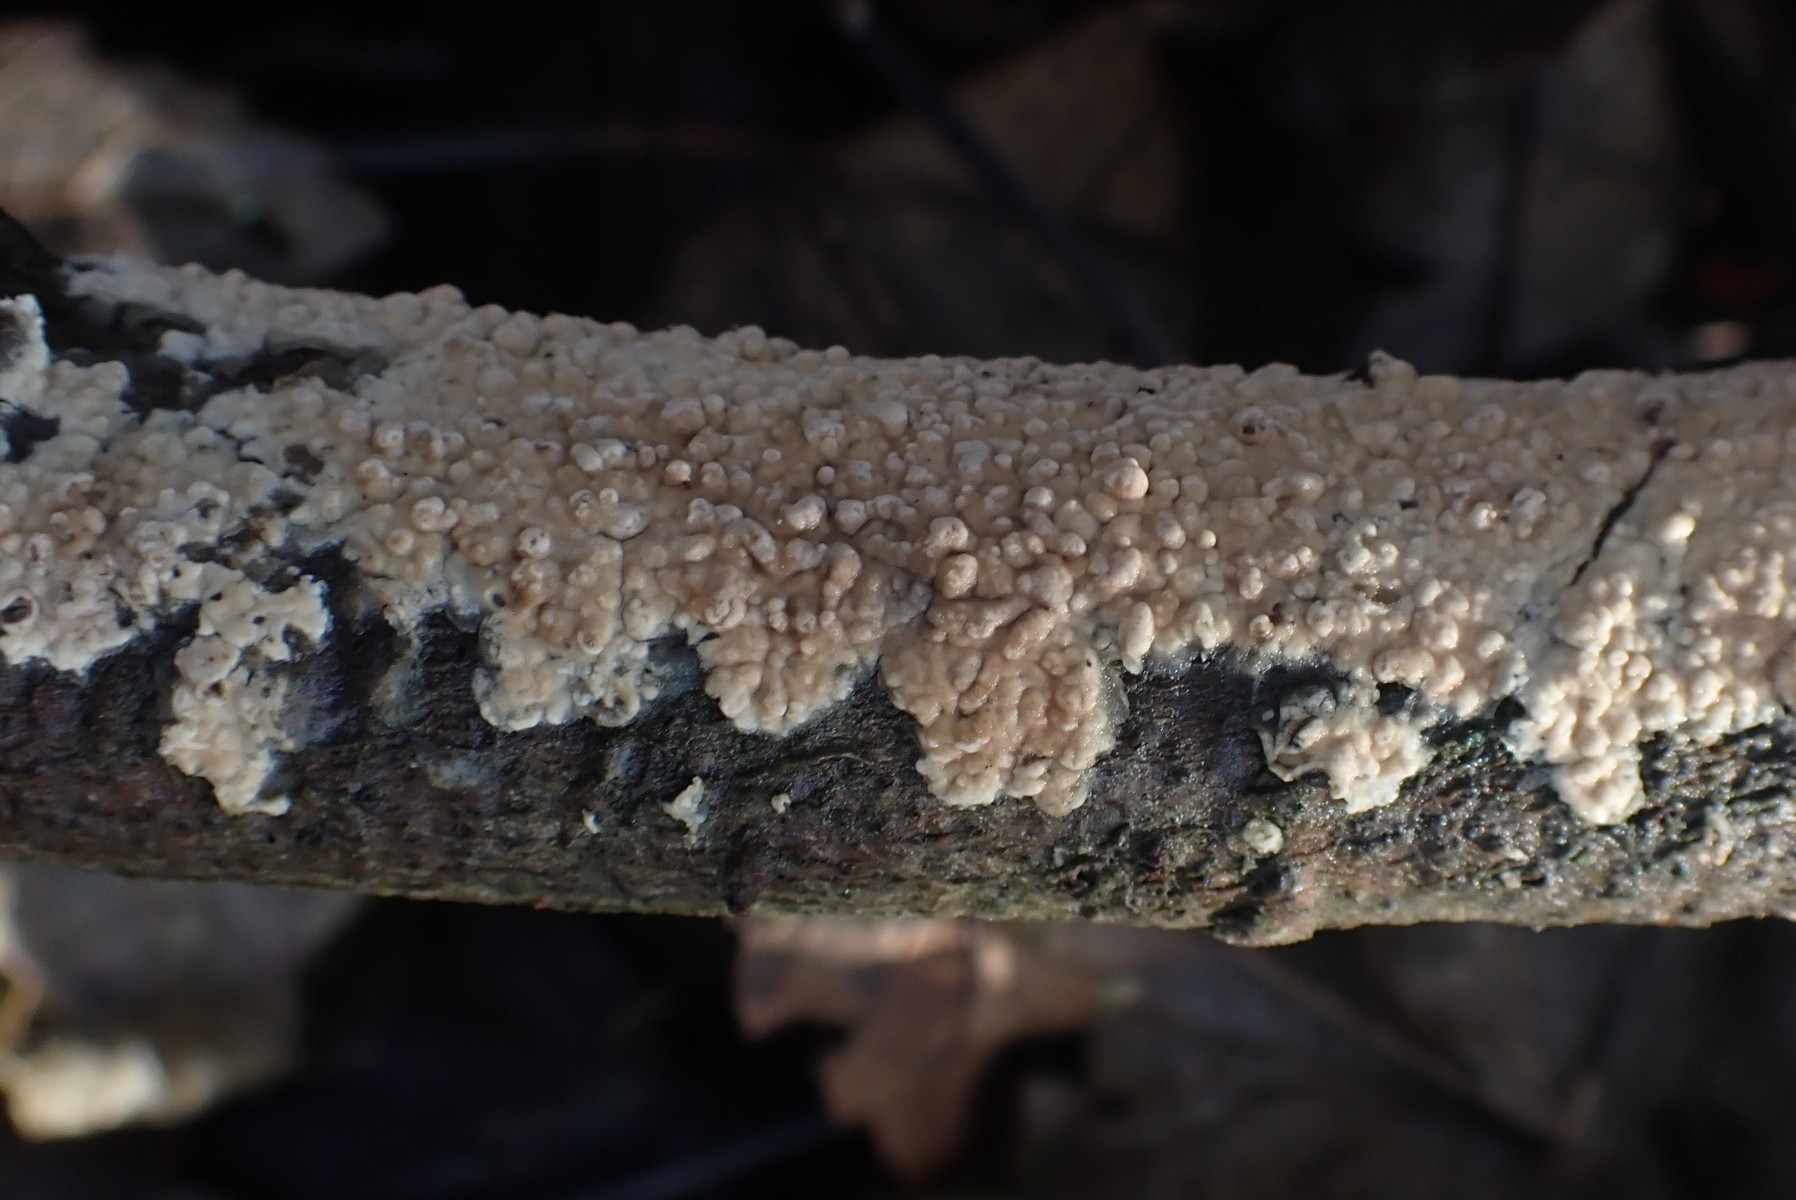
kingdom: Fungi
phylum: Basidiomycota
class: Agaricomycetes
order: Agaricales
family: Physalacriaceae
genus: Cylindrobasidium
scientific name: Cylindrobasidium evolvens
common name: sprækkehinde
